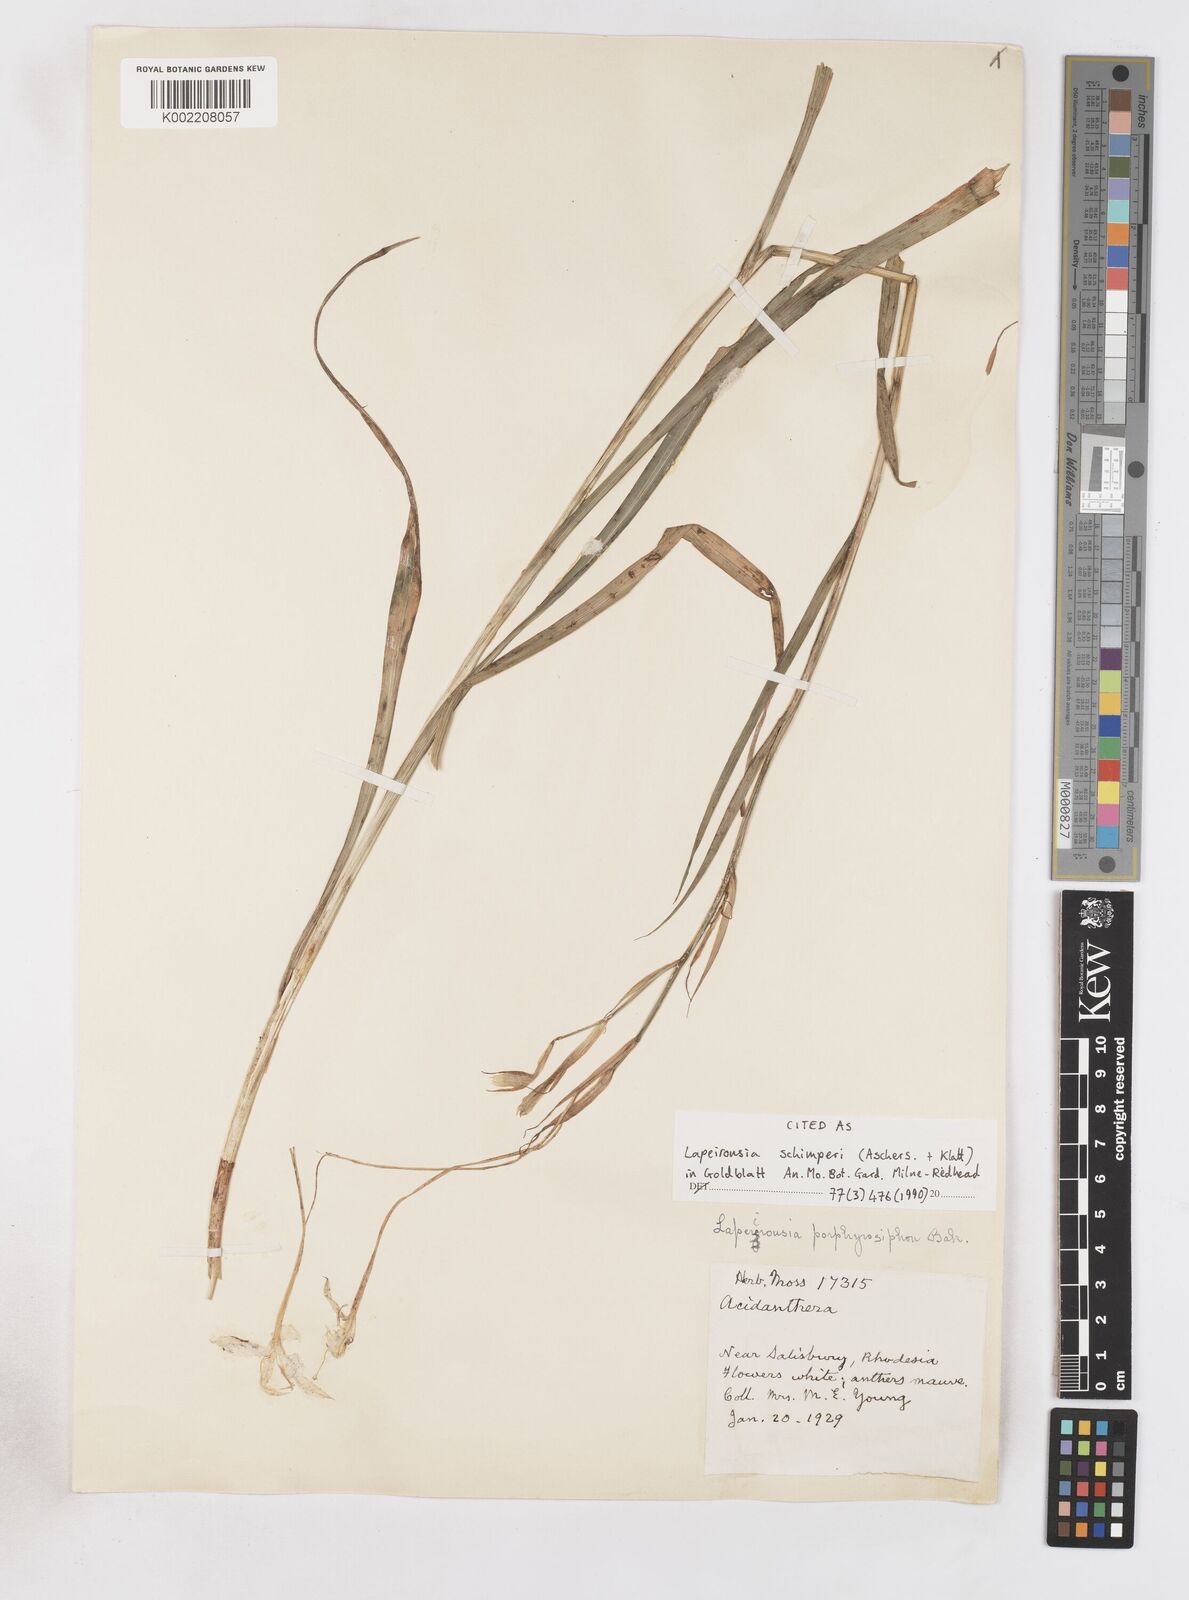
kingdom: Plantae
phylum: Tracheophyta
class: Liliopsida
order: Asparagales
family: Iridaceae
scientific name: Iridaceae
